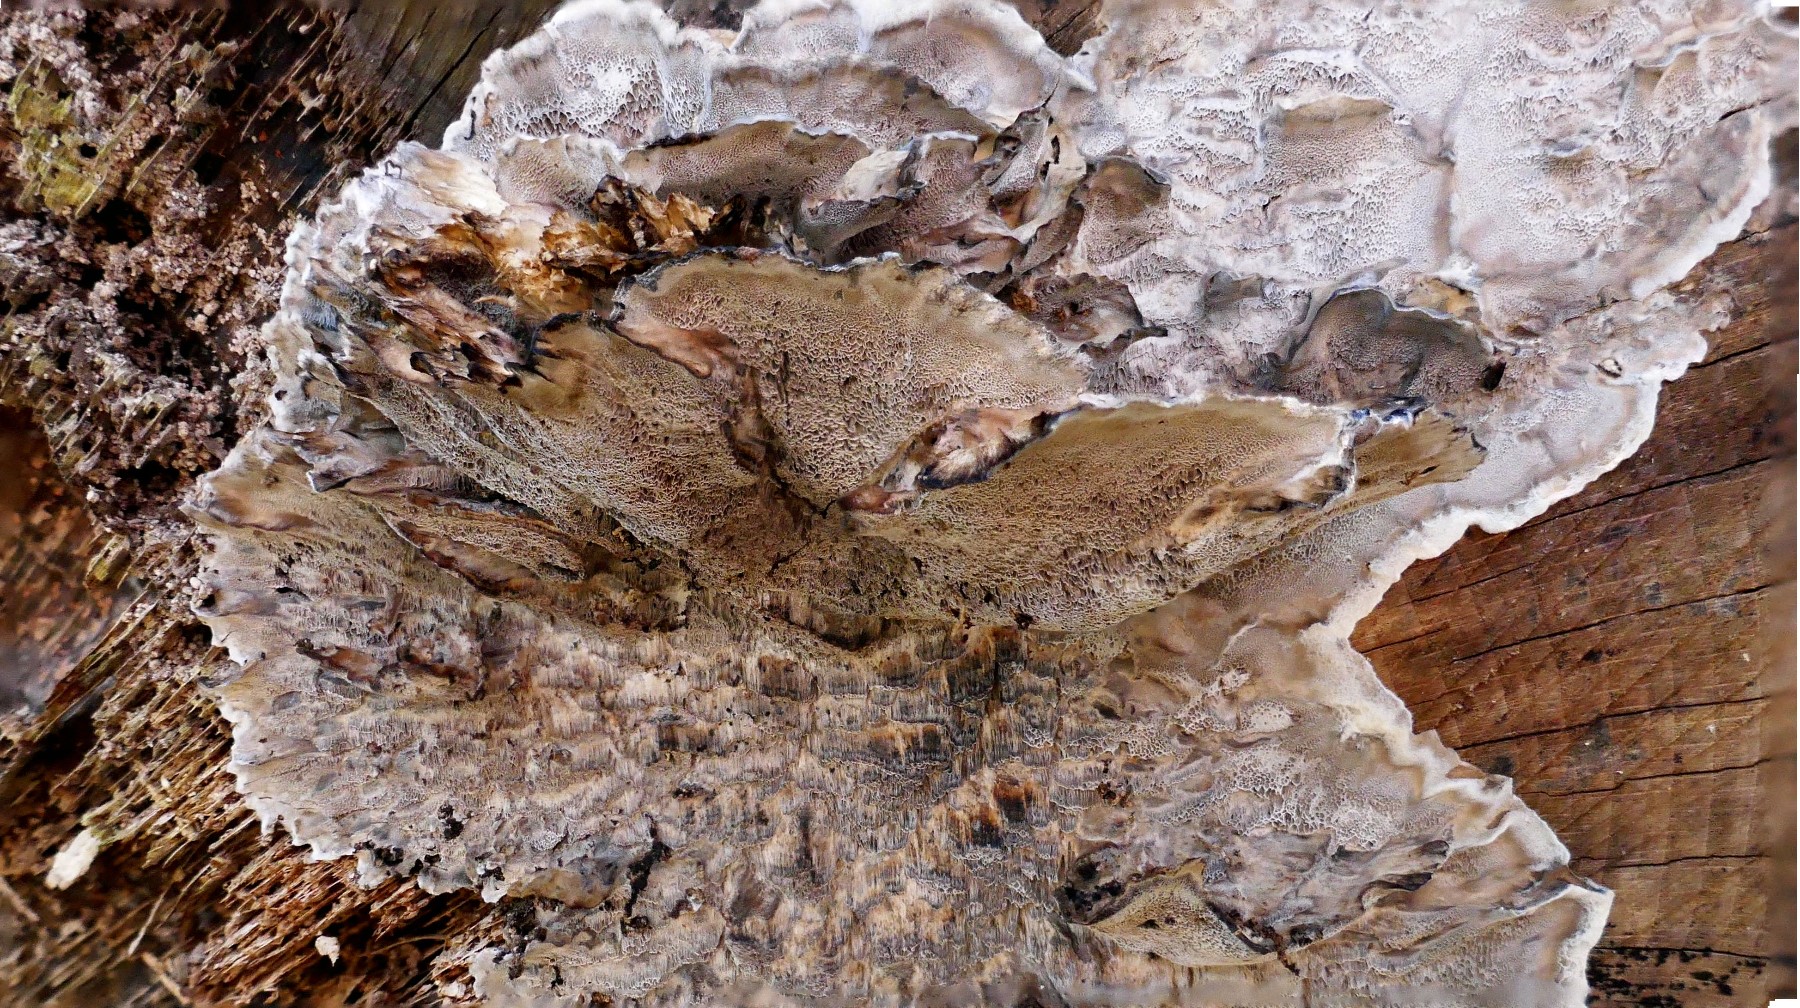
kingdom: Fungi
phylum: Basidiomycota
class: Agaricomycetes
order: Polyporales
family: Phanerochaetaceae
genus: Bjerkandera
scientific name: Bjerkandera adusta
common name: sveden sodporesvamp
